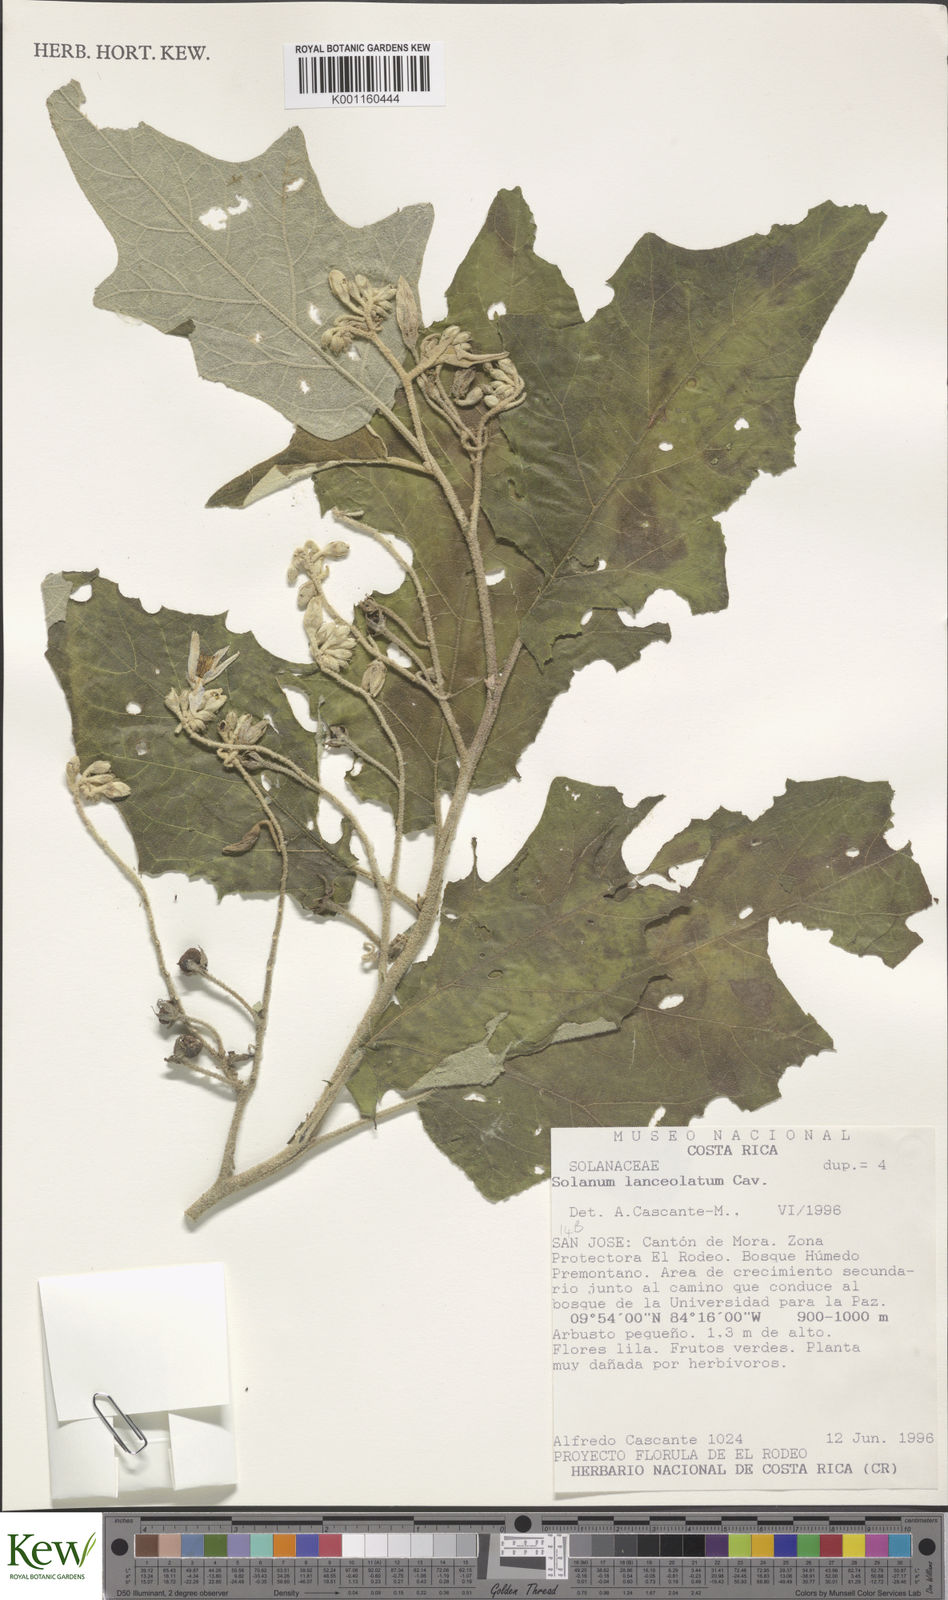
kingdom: Plantae
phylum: Tracheophyta
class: Magnoliopsida
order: Solanales
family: Solanaceae
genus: Solanum
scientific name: Solanum lanceolatum
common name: Orangeberry nightshade
